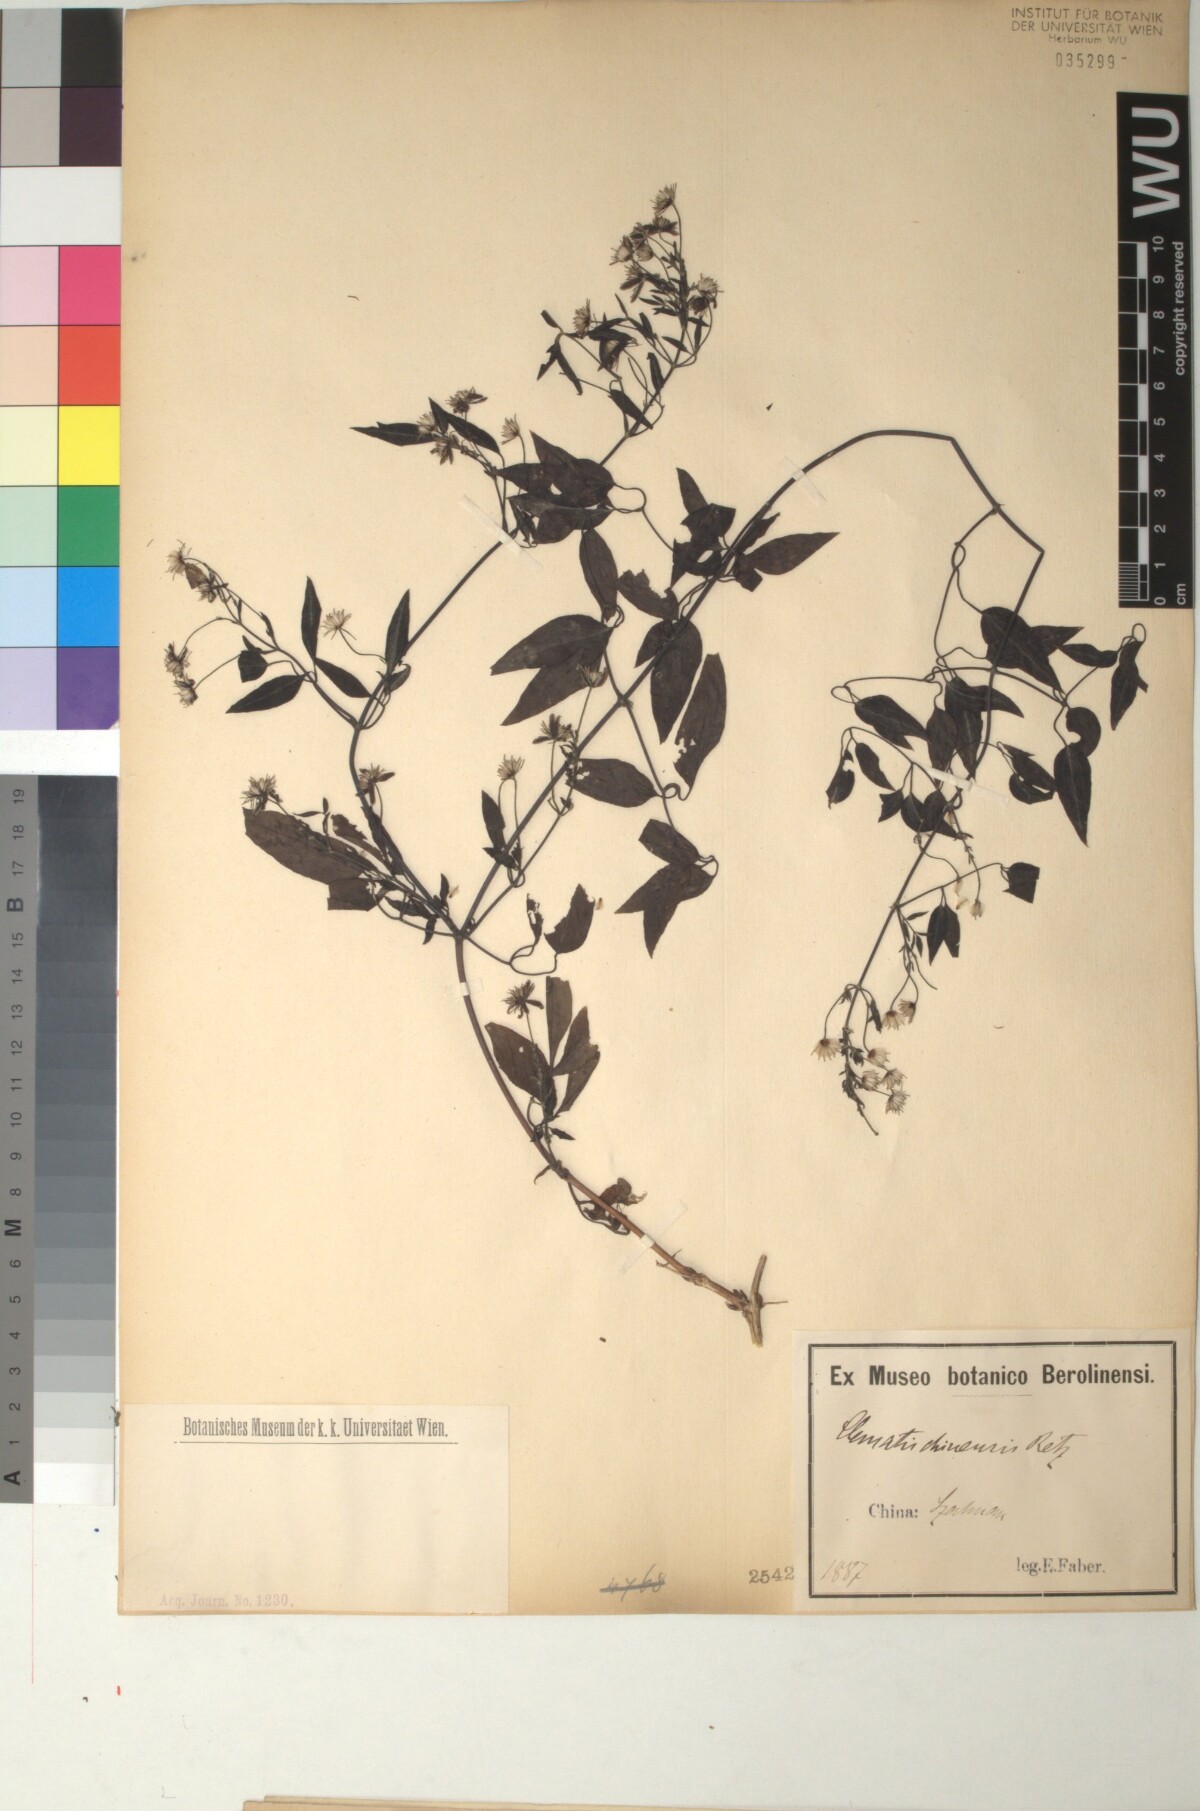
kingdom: Plantae
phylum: Tracheophyta
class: Magnoliopsida
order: Ranunculales
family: Ranunculaceae
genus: Clematis
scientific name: Clematis chinensis
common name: Chinese clematis
